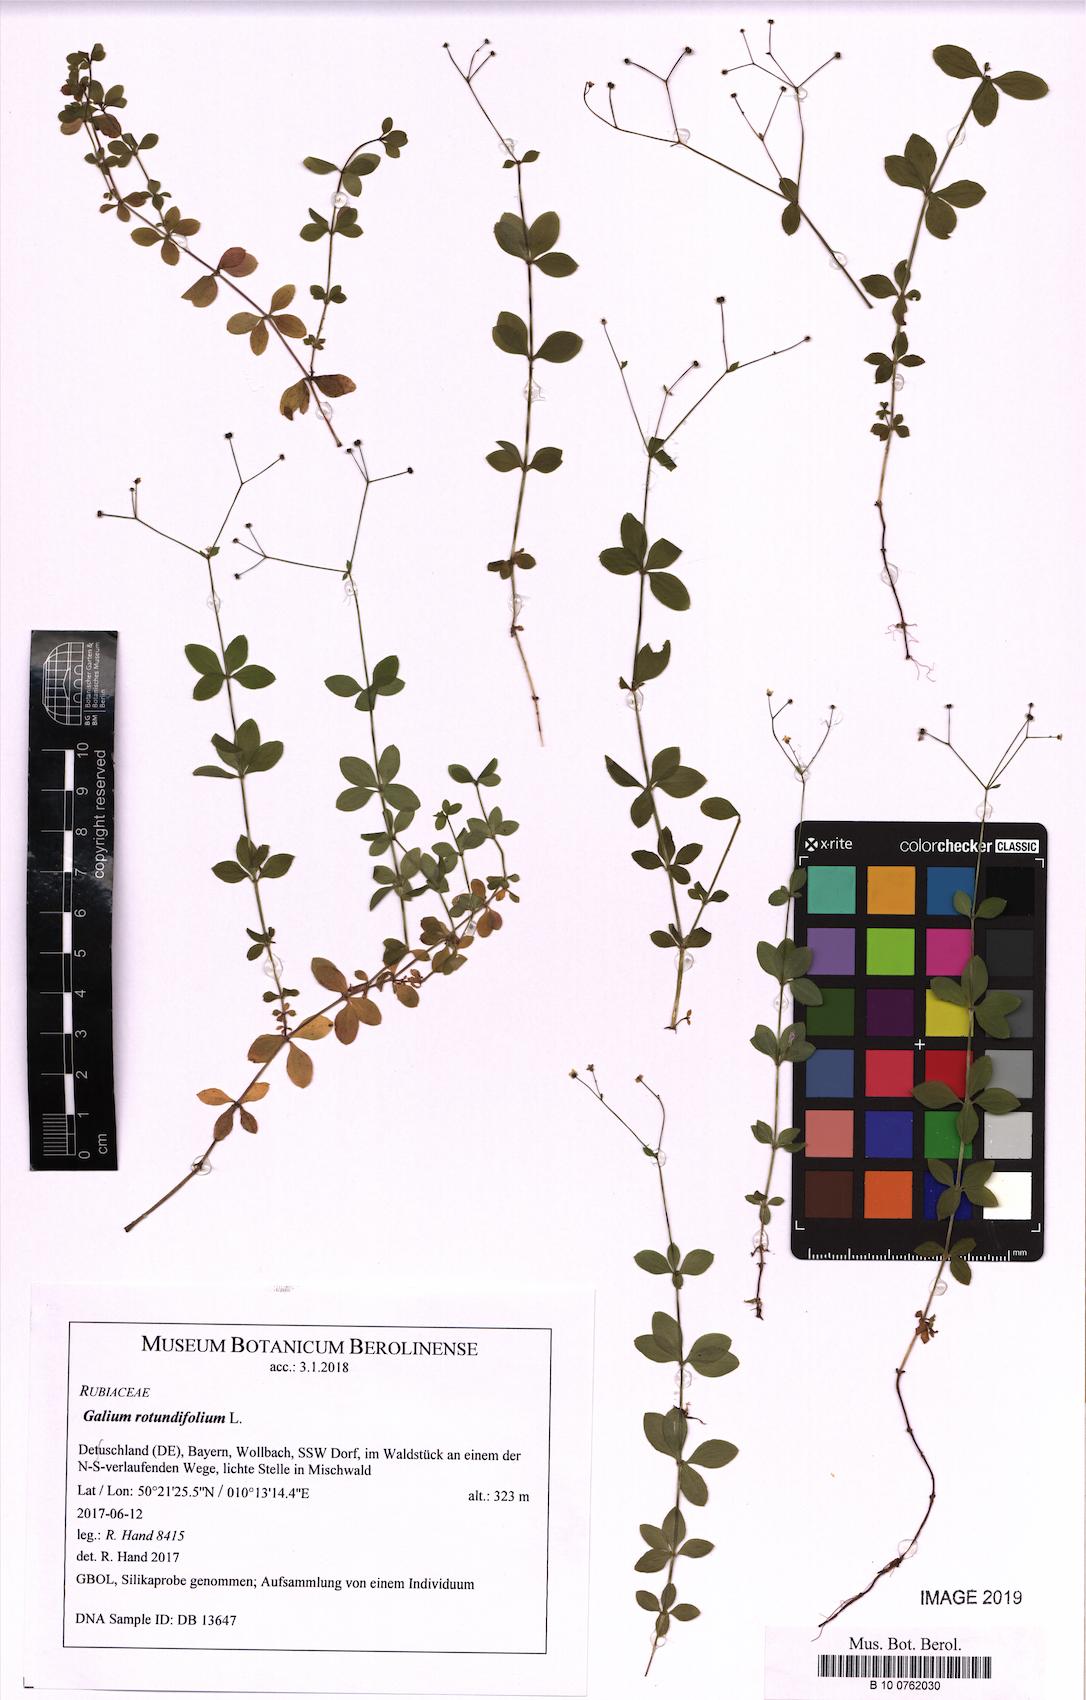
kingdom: Plantae
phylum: Tracheophyta
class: Magnoliopsida
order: Gentianales
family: Rubiaceae
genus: Galium
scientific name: Galium rotundifolium
